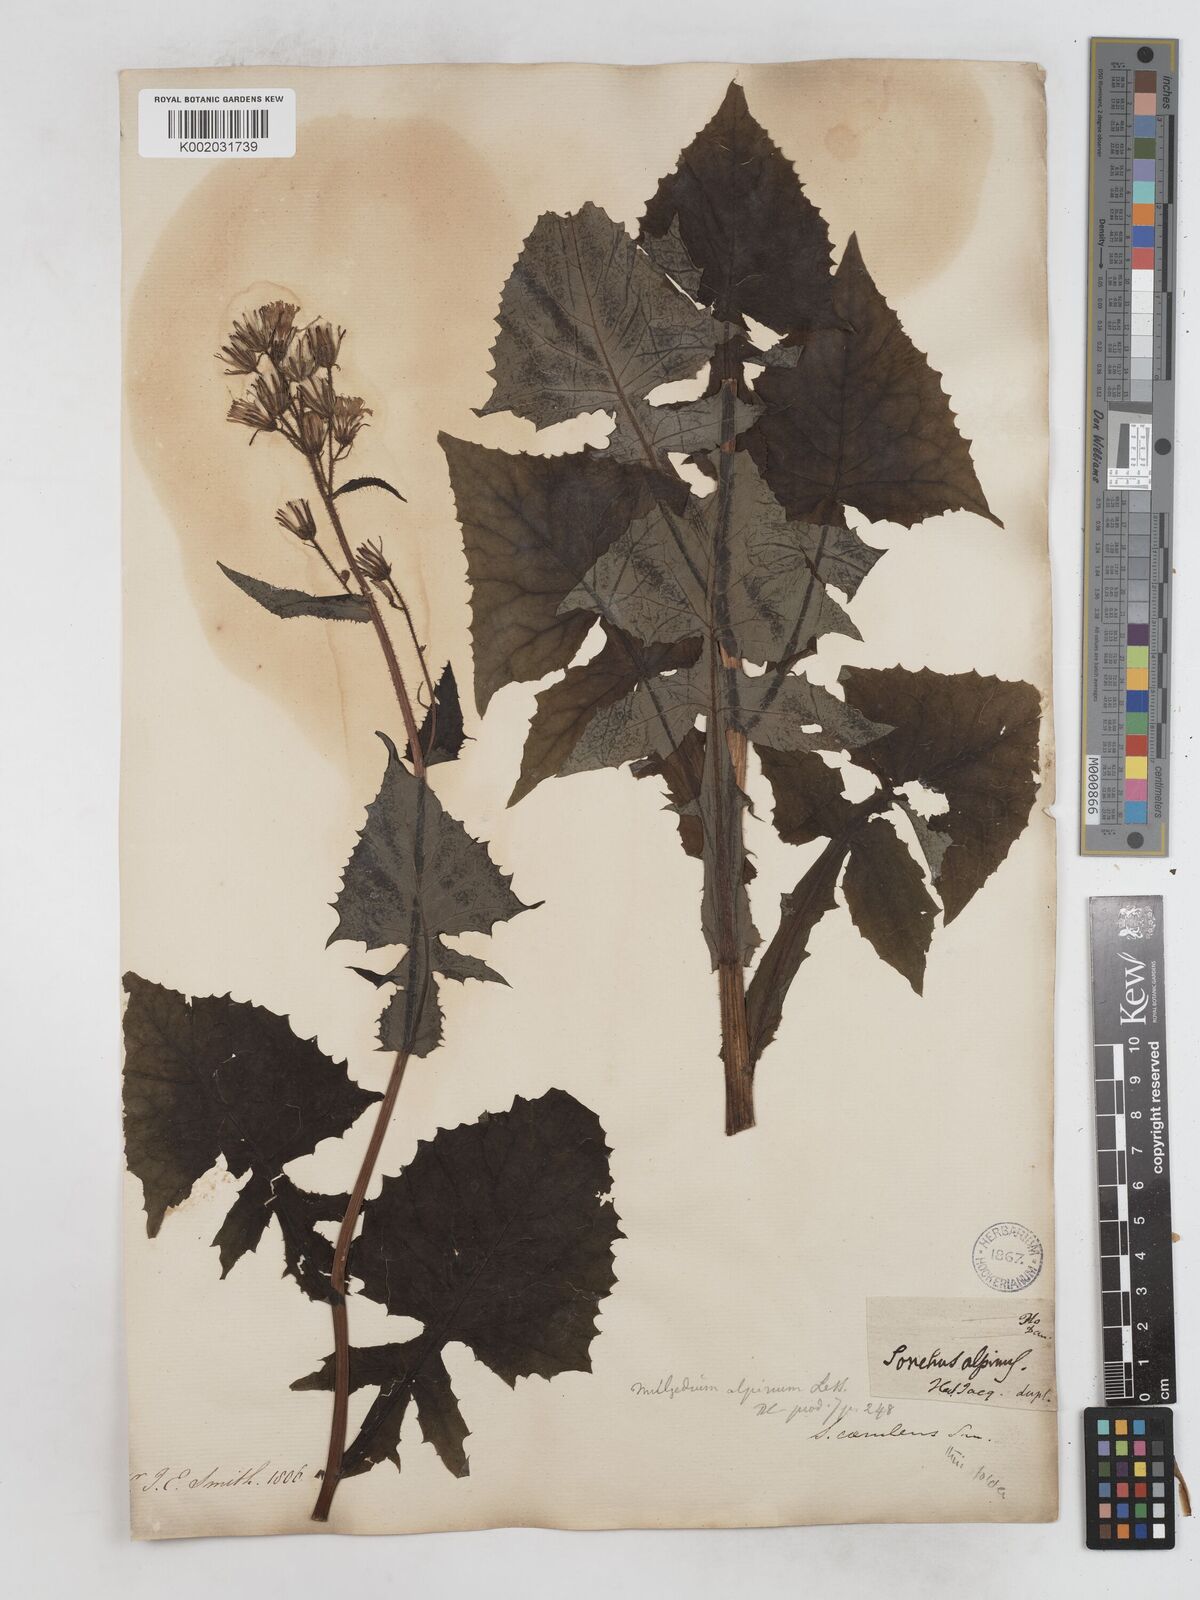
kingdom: Plantae
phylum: Tracheophyta
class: Magnoliopsida
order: Asterales
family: Asteraceae
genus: Cicerbita
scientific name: Cicerbita alpina
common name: Alpine blue-sow-thistle
